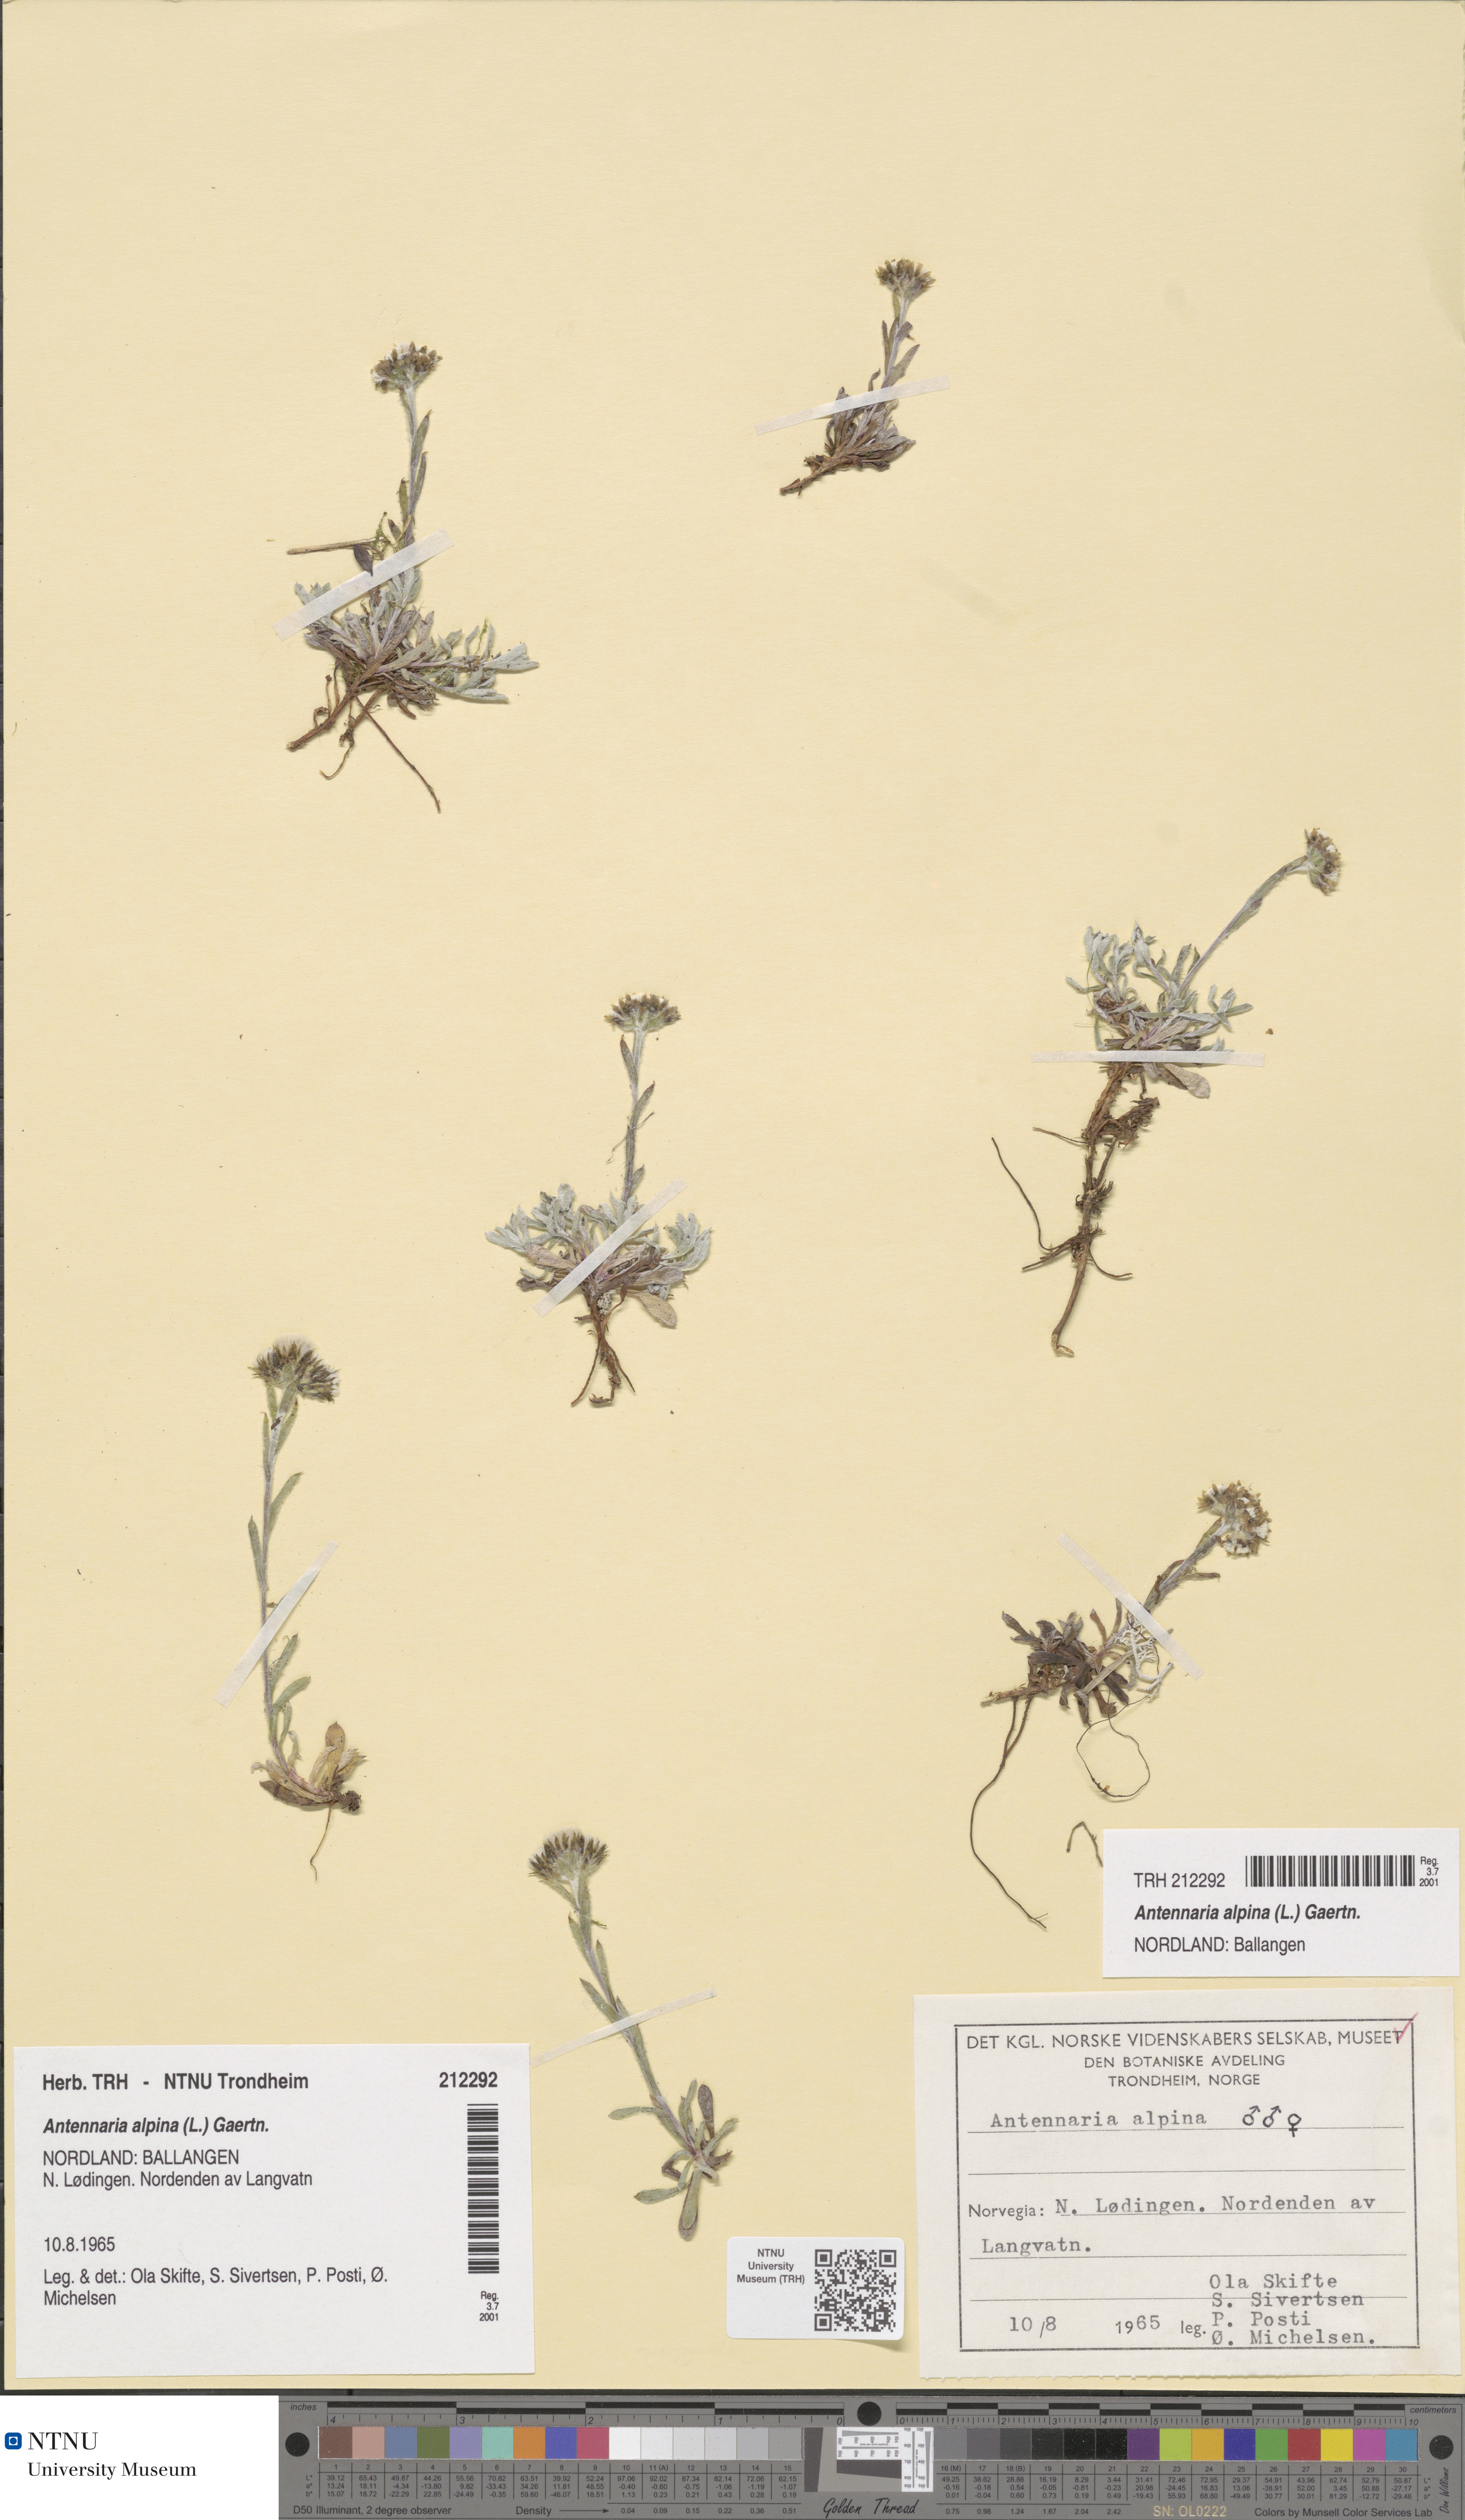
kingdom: Plantae
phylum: Tracheophyta
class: Magnoliopsida
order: Asterales
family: Asteraceae
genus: Antennaria
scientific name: Antennaria alpina
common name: Alpine pussytoes
